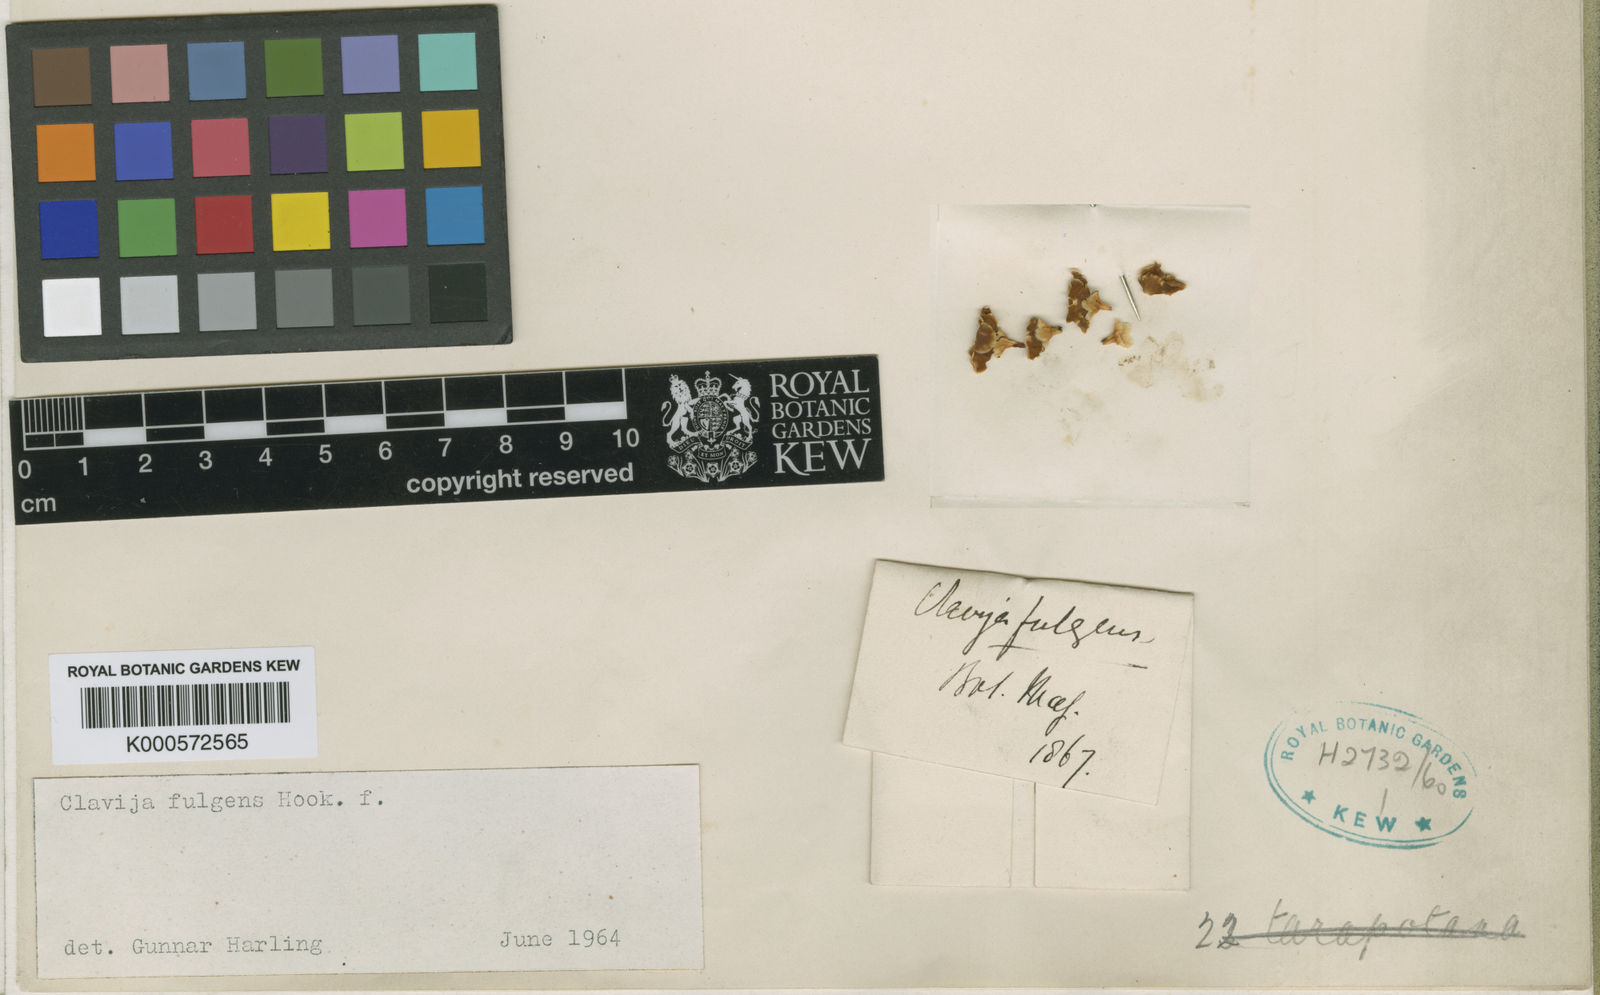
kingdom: Plantae
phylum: Tracheophyta
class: Magnoliopsida
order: Ericales
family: Primulaceae
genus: Clavija
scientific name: Clavija fulgens
